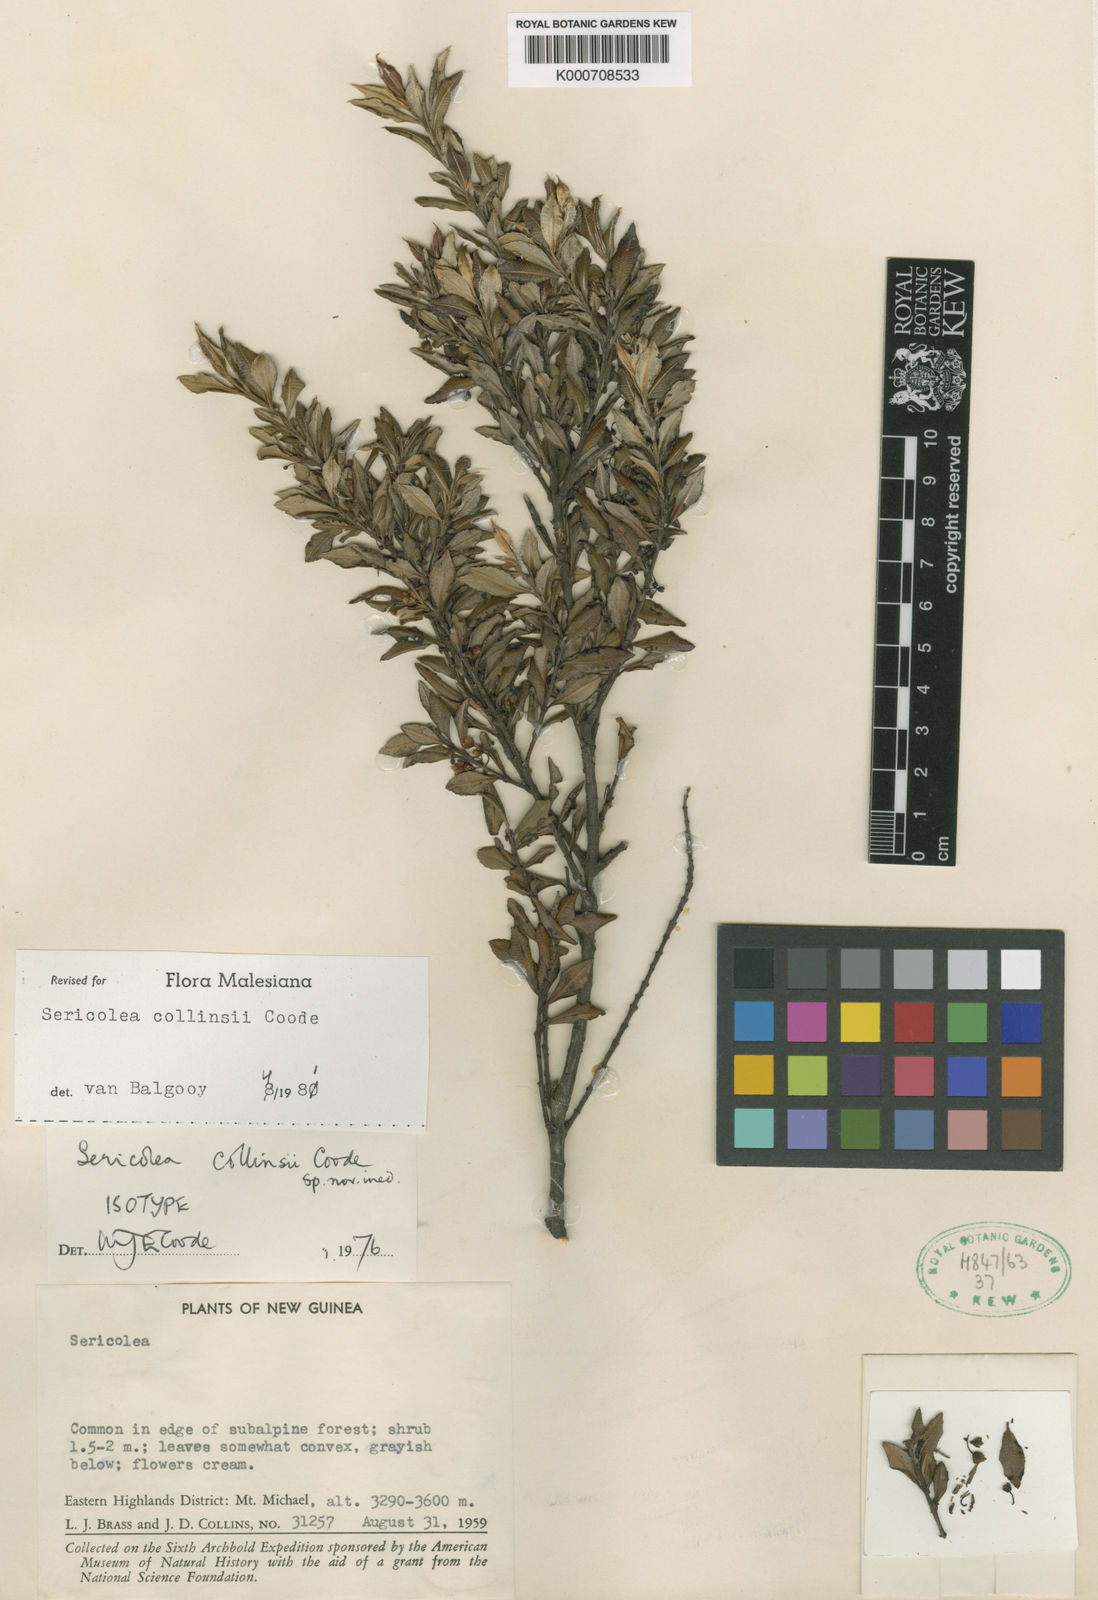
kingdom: Plantae
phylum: Tracheophyta
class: Magnoliopsida
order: Oxalidales
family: Elaeocarpaceae
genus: Sericolea
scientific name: Sericolea collinsii
